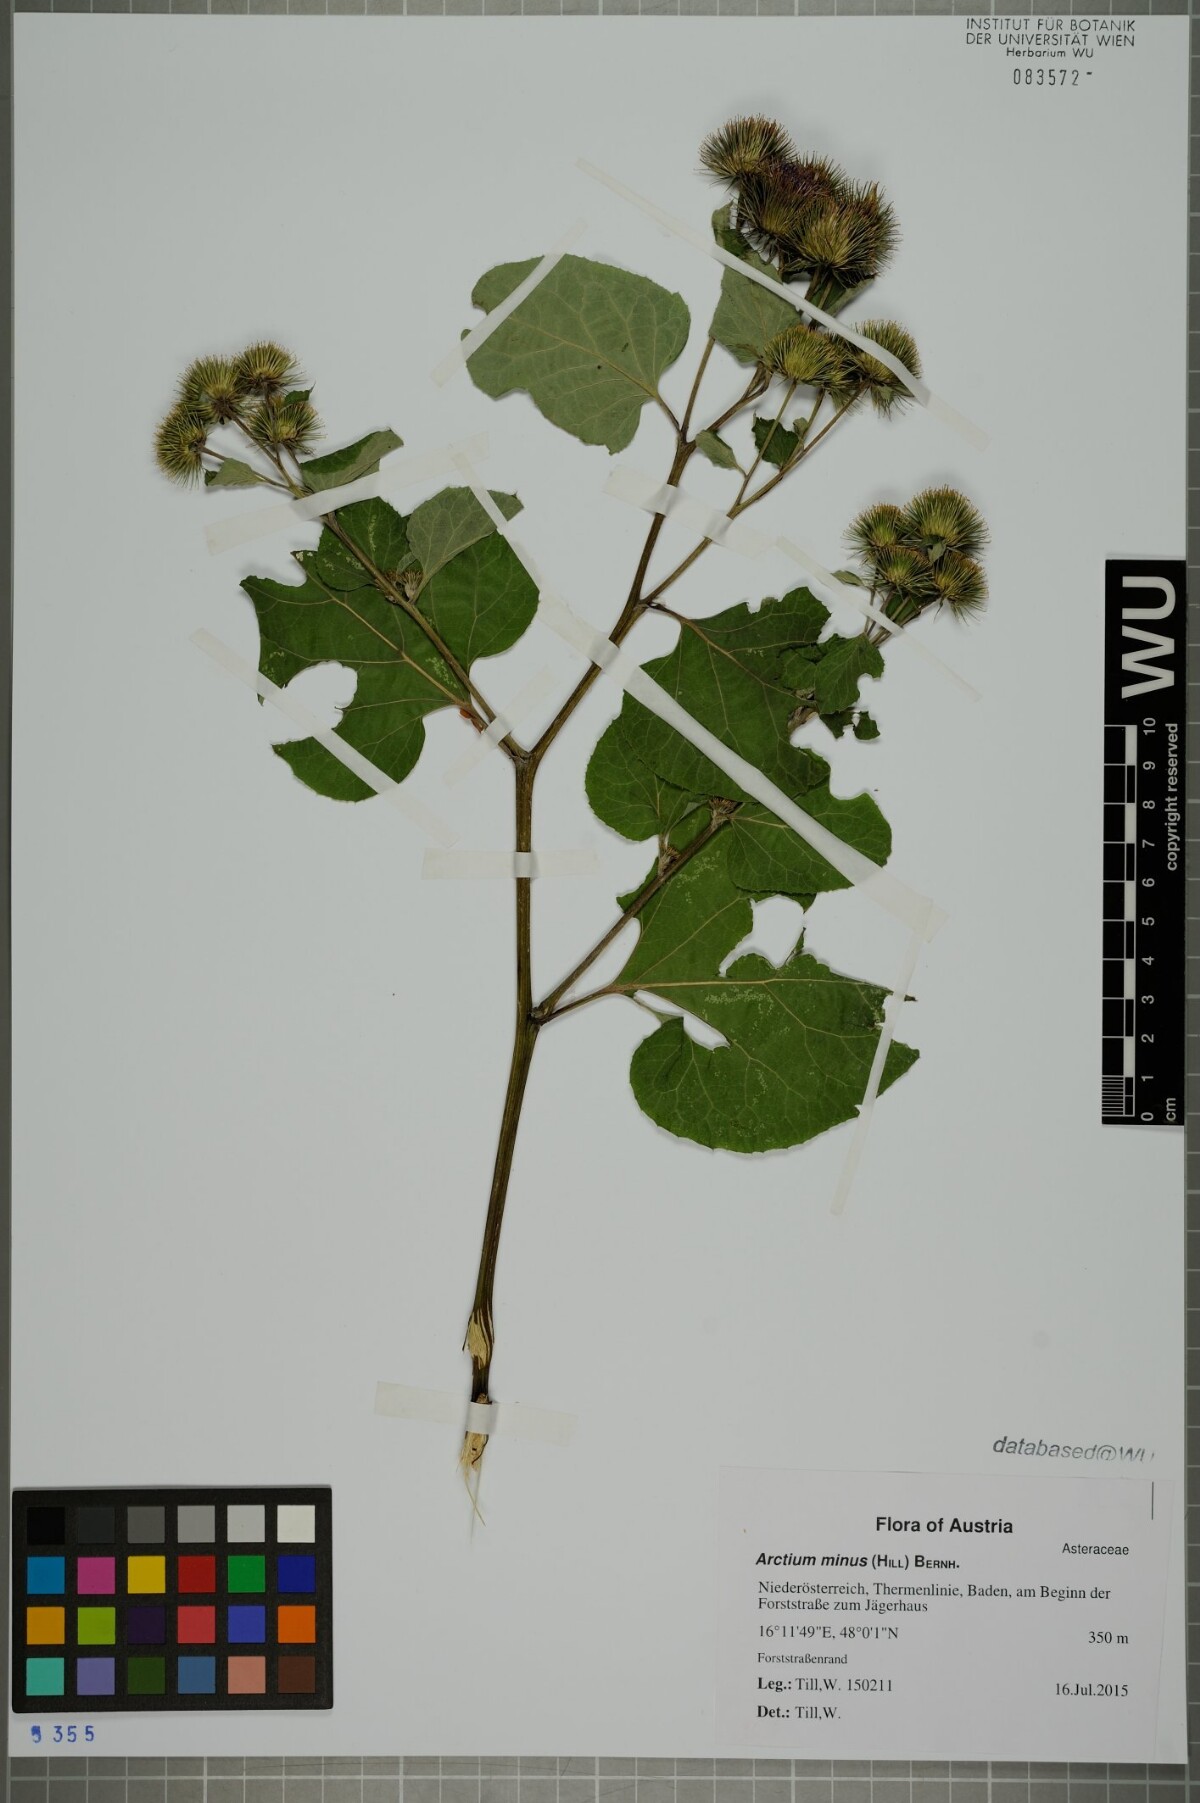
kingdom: Plantae
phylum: Tracheophyta
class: Magnoliopsida
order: Asterales
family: Asteraceae
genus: Arctium
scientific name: Arctium minus
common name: Lesser burdock
